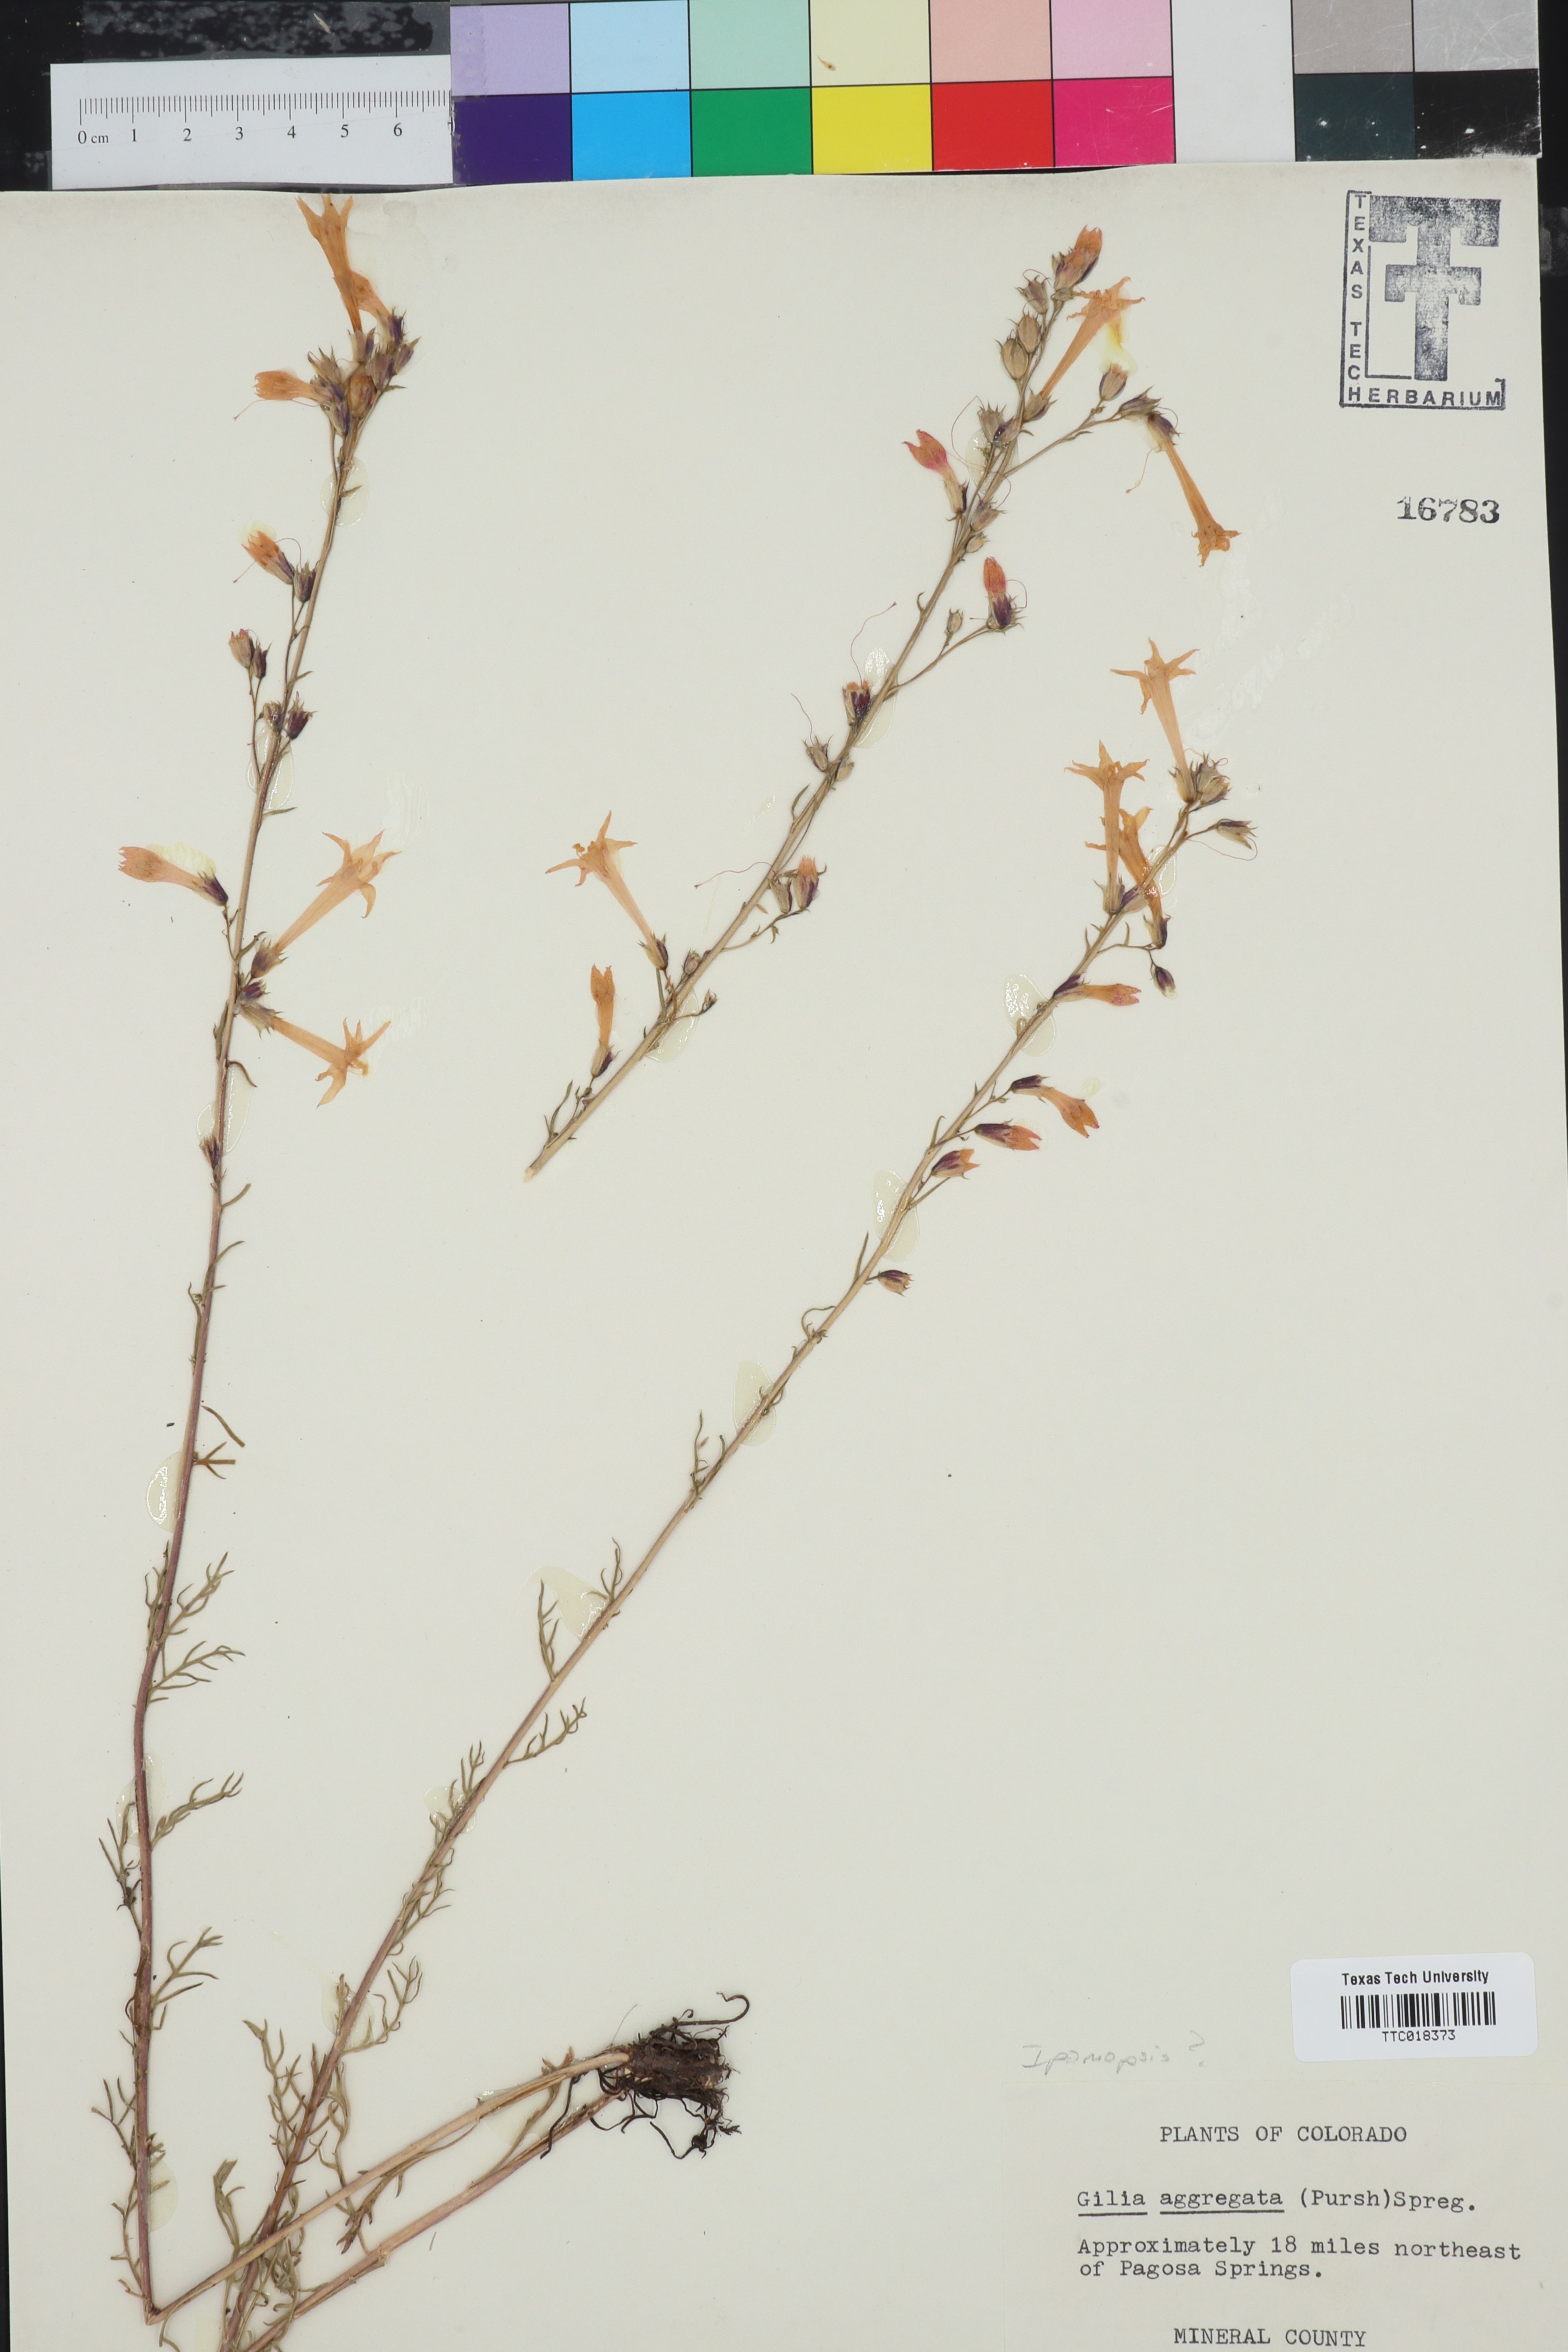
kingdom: Plantae
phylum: Tracheophyta
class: Magnoliopsida
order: Ericales
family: Polemoniaceae
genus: Ipomopsis
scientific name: Ipomopsis
